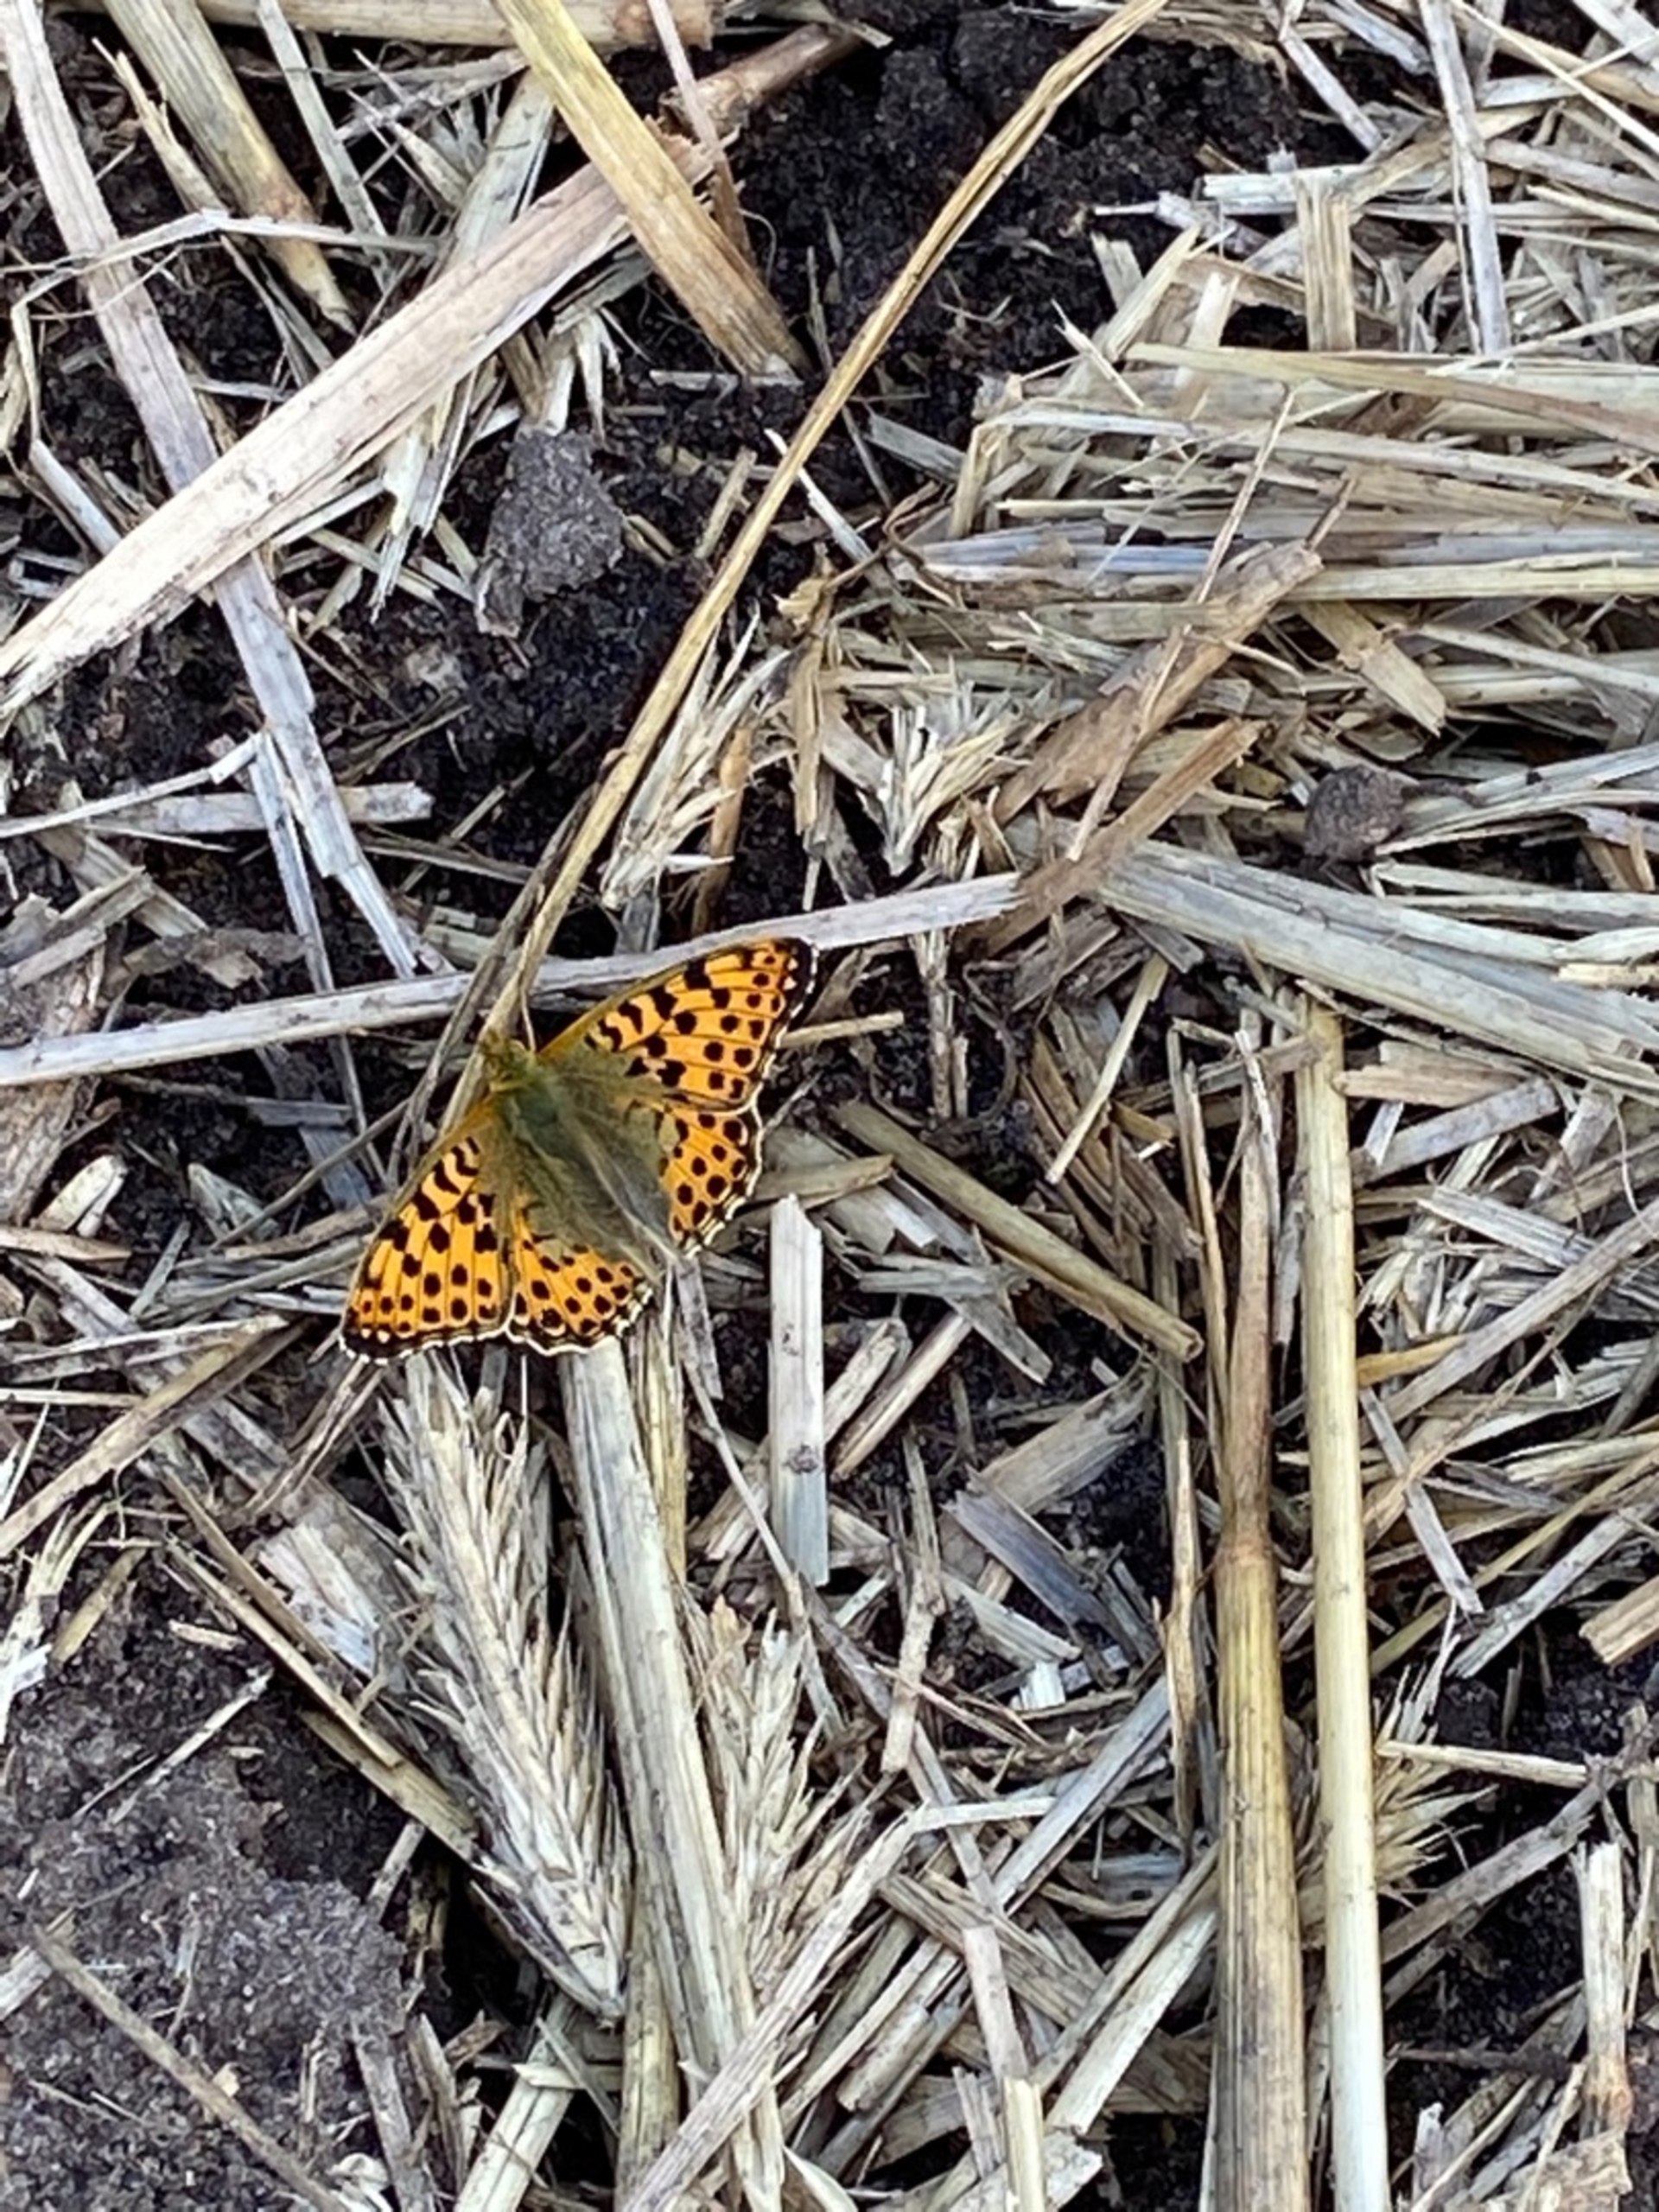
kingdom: Animalia
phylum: Arthropoda
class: Insecta
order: Lepidoptera
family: Nymphalidae
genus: Issoria
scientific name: Issoria lathonia
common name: Storplettet perlemorsommerfugl
